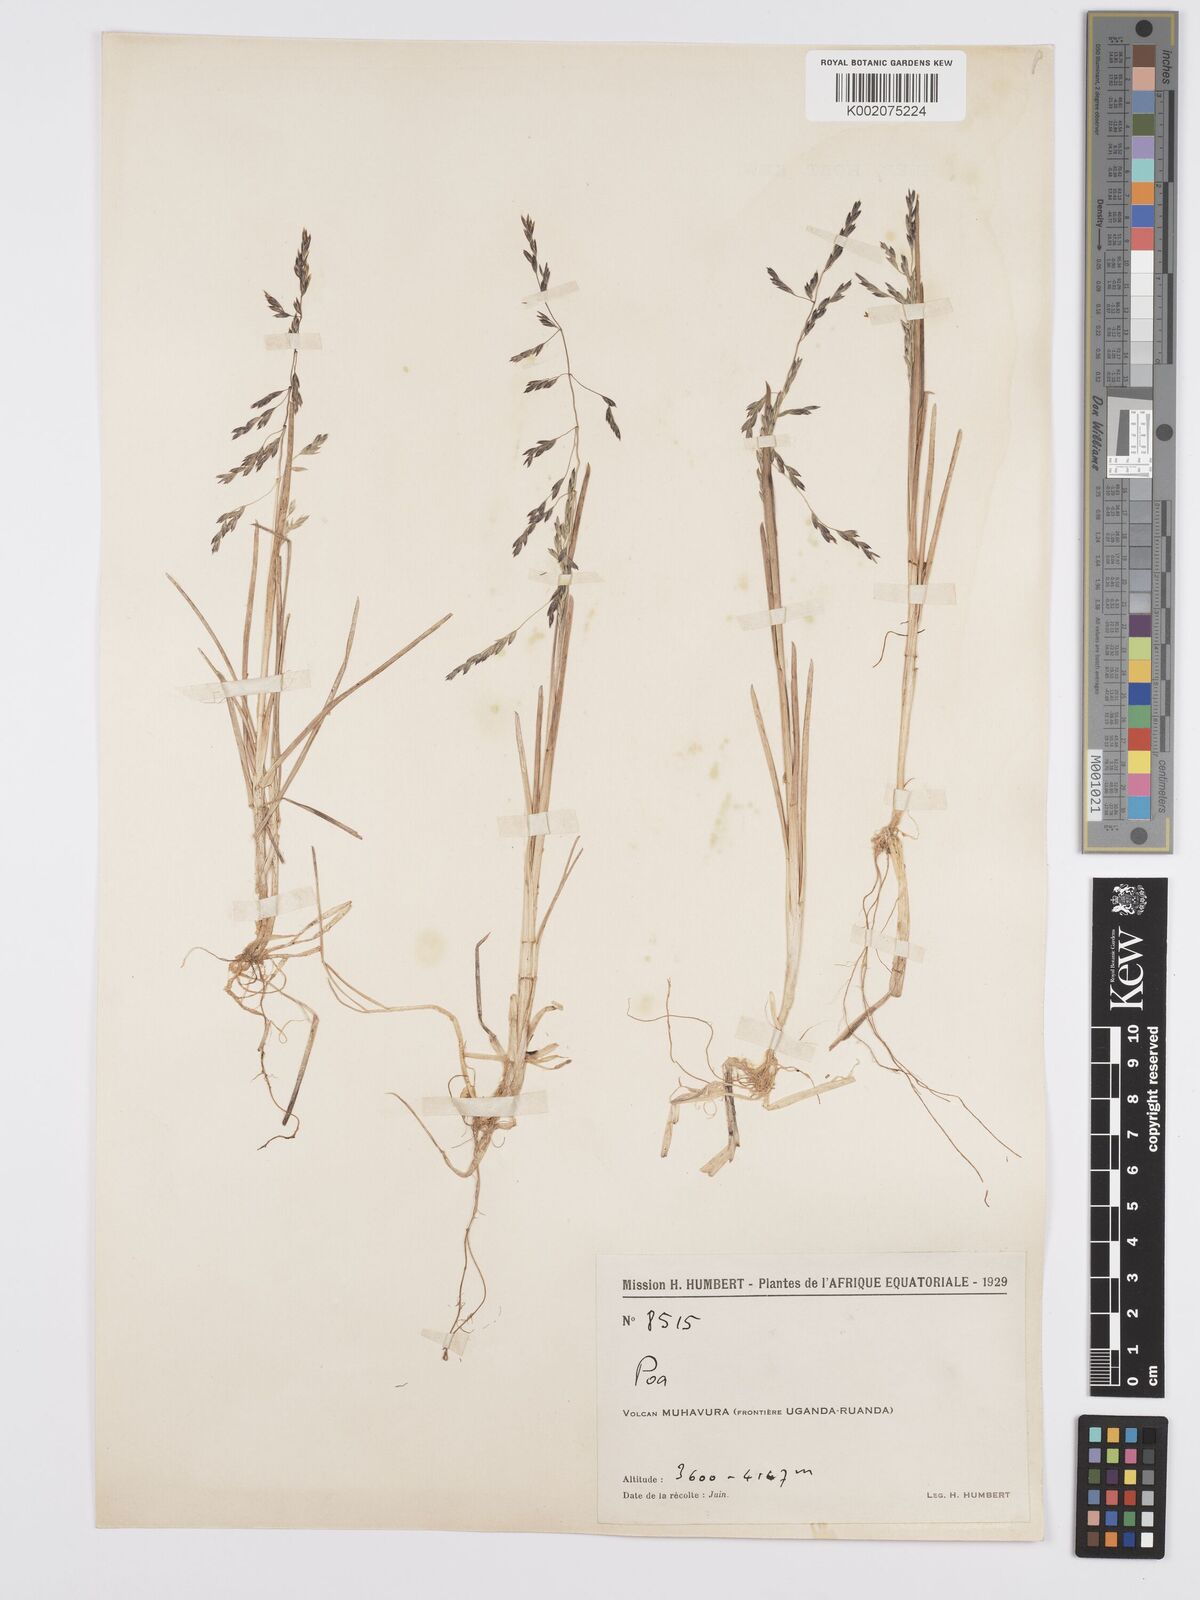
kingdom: Plantae
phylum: Tracheophyta
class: Liliopsida
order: Poales
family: Poaceae
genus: Poa
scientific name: Poa schimperiana
